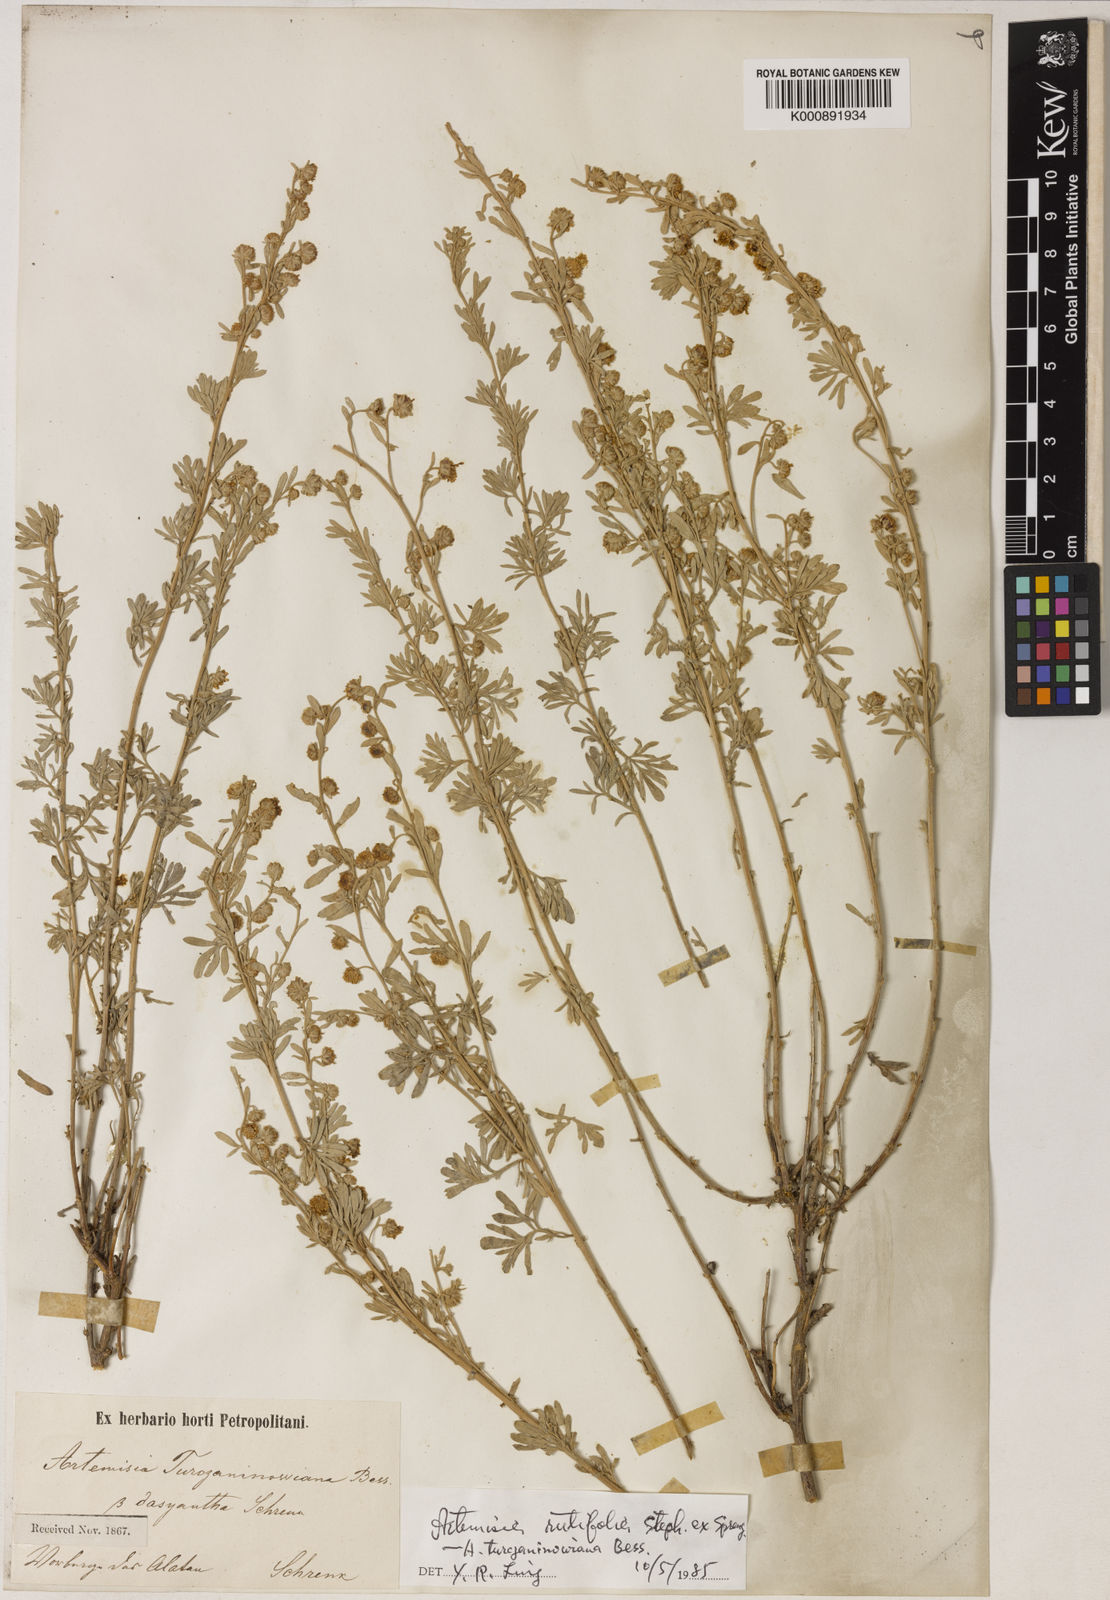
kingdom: Plantae
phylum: Tracheophyta
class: Magnoliopsida
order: Asterales
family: Asteraceae
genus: Artemisia
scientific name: Artemisia rutifolia
